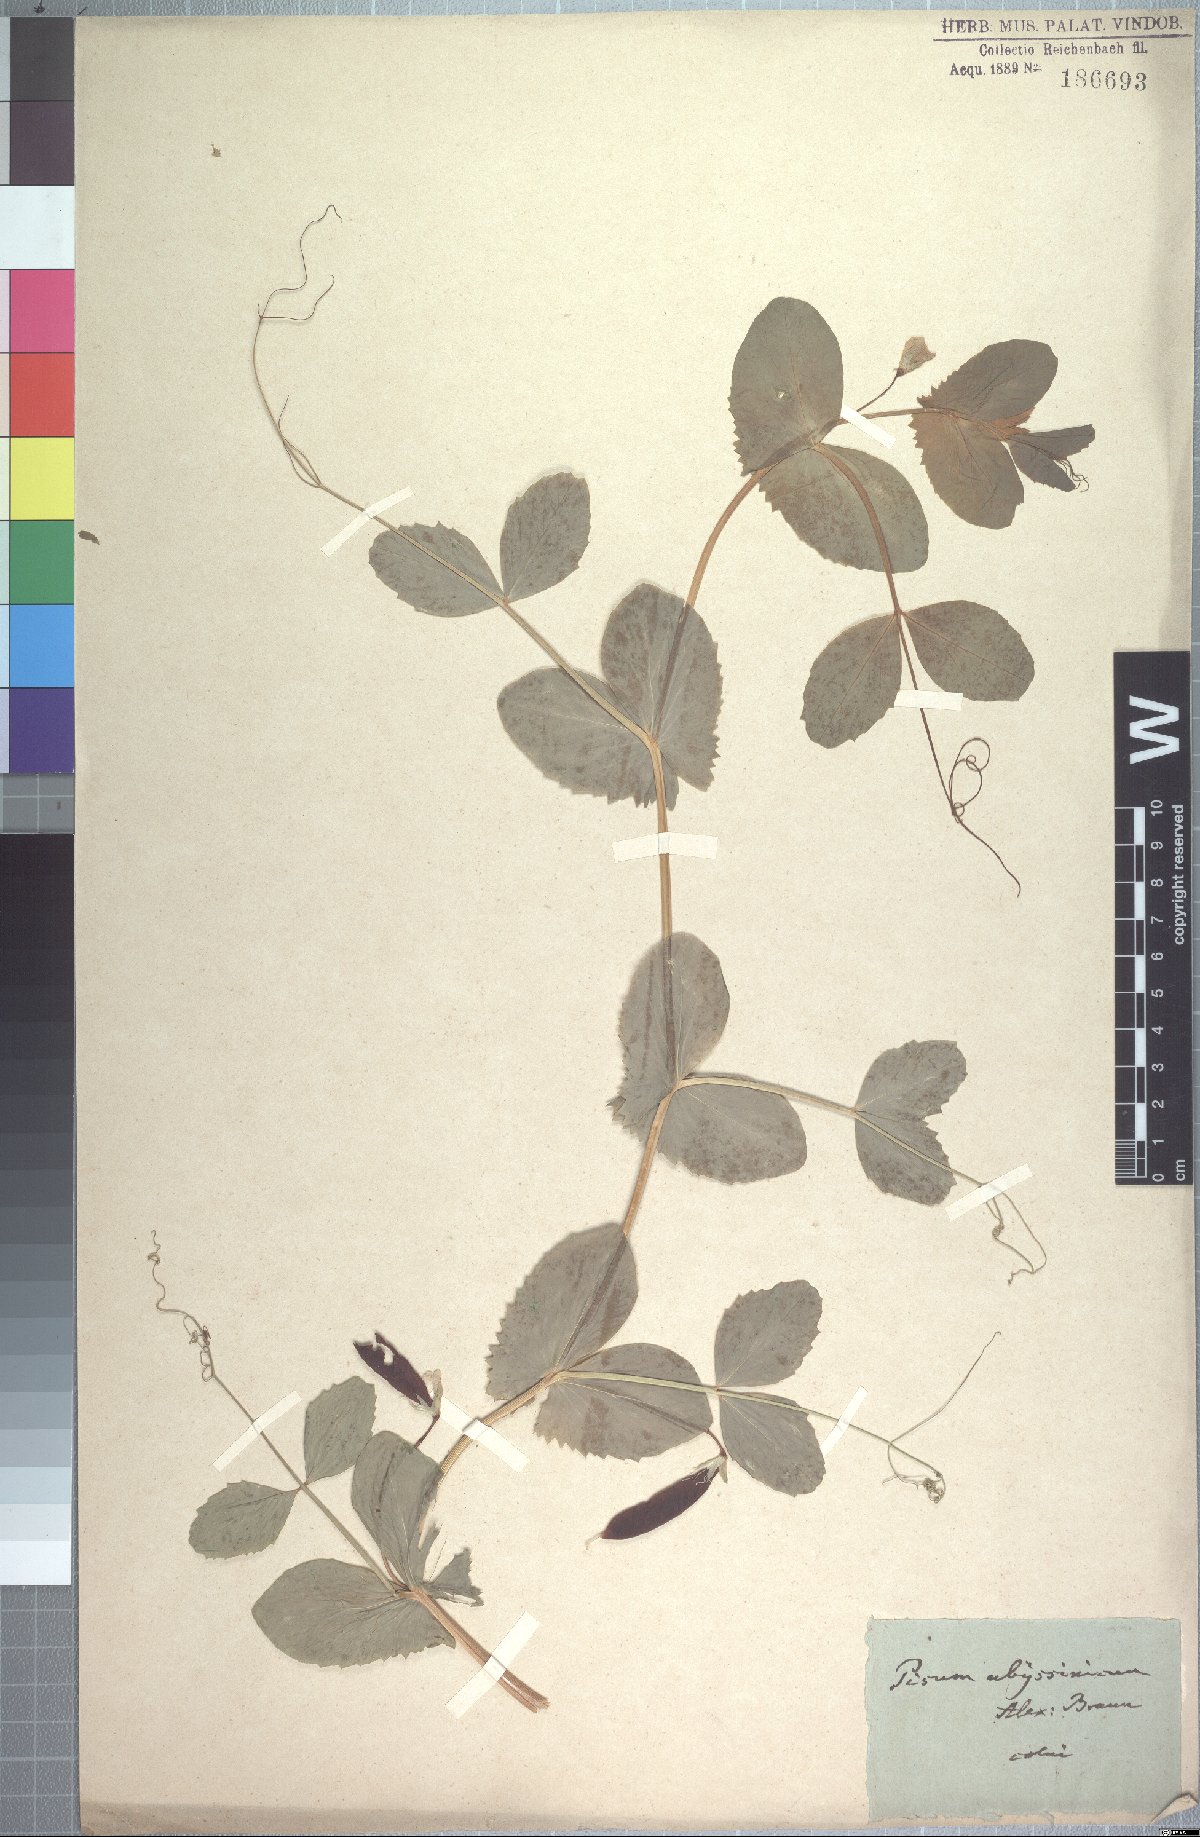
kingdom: Plantae
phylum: Tracheophyta
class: Magnoliopsida
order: Fabales
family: Fabaceae
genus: Lathyrus
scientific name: Lathyrus oleraceus
